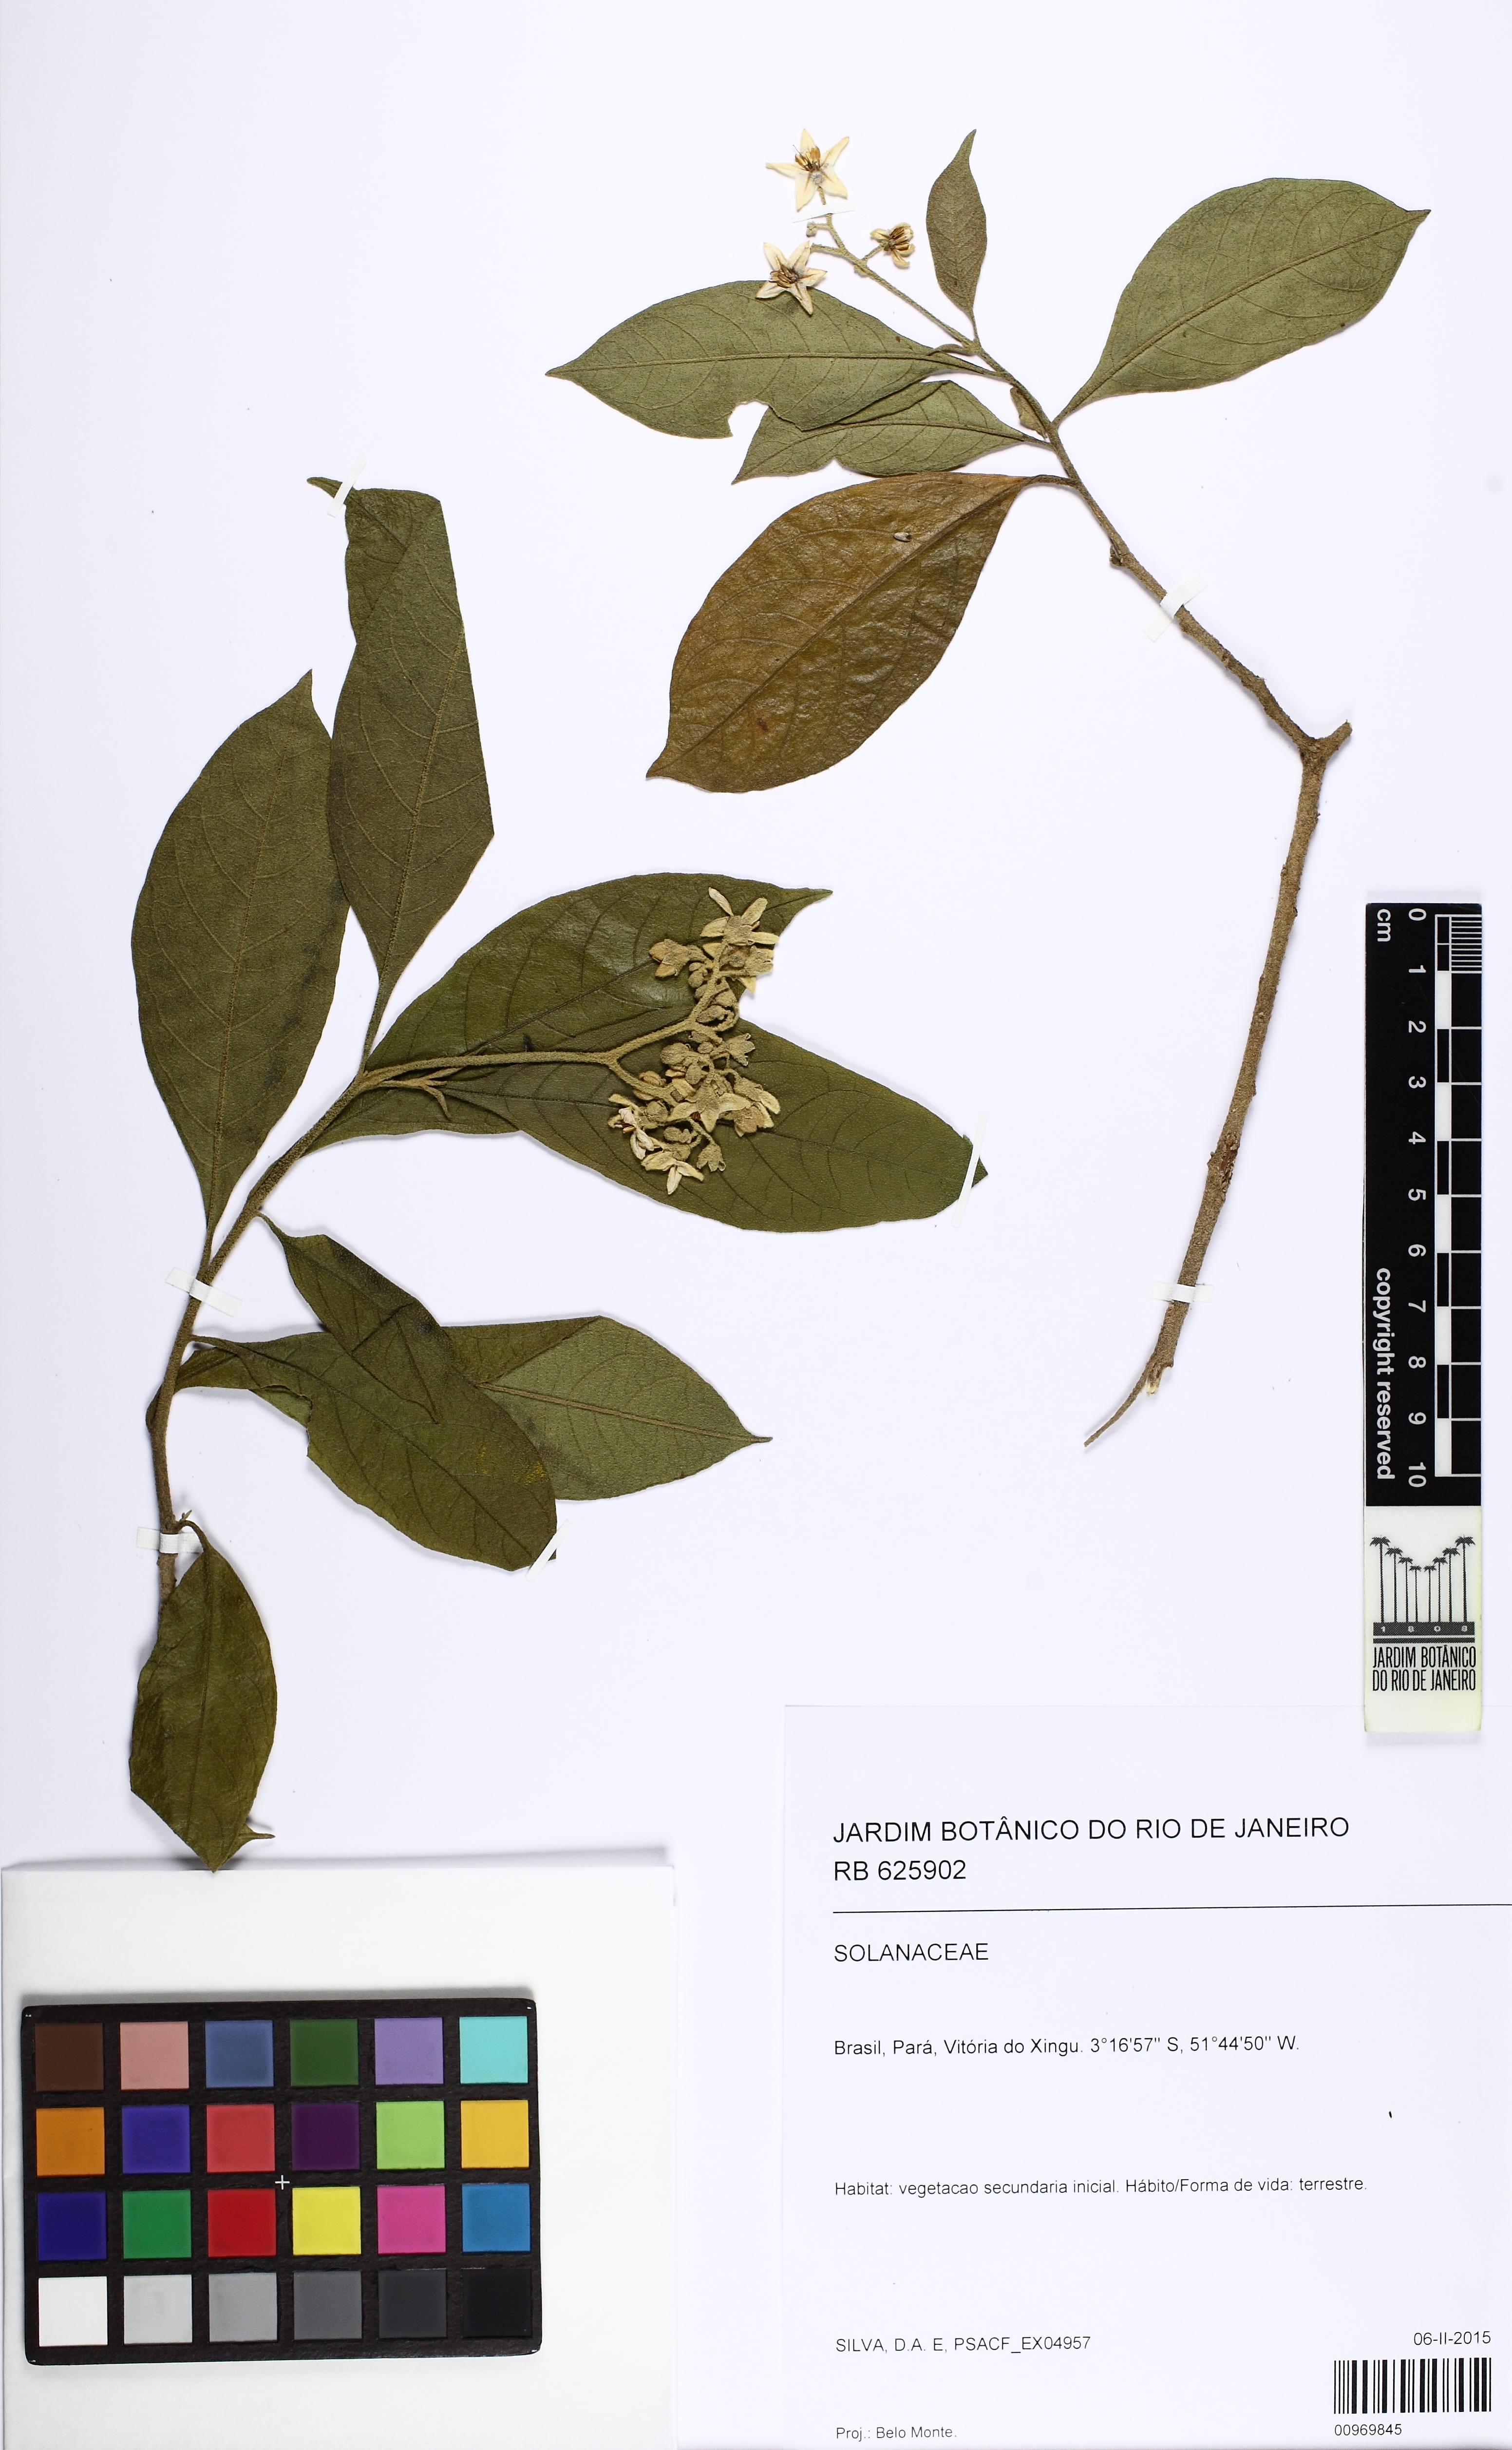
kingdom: Plantae
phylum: Tracheophyta
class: Magnoliopsida
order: Solanales
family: Solanaceae
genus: Solanum
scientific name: Solanum
